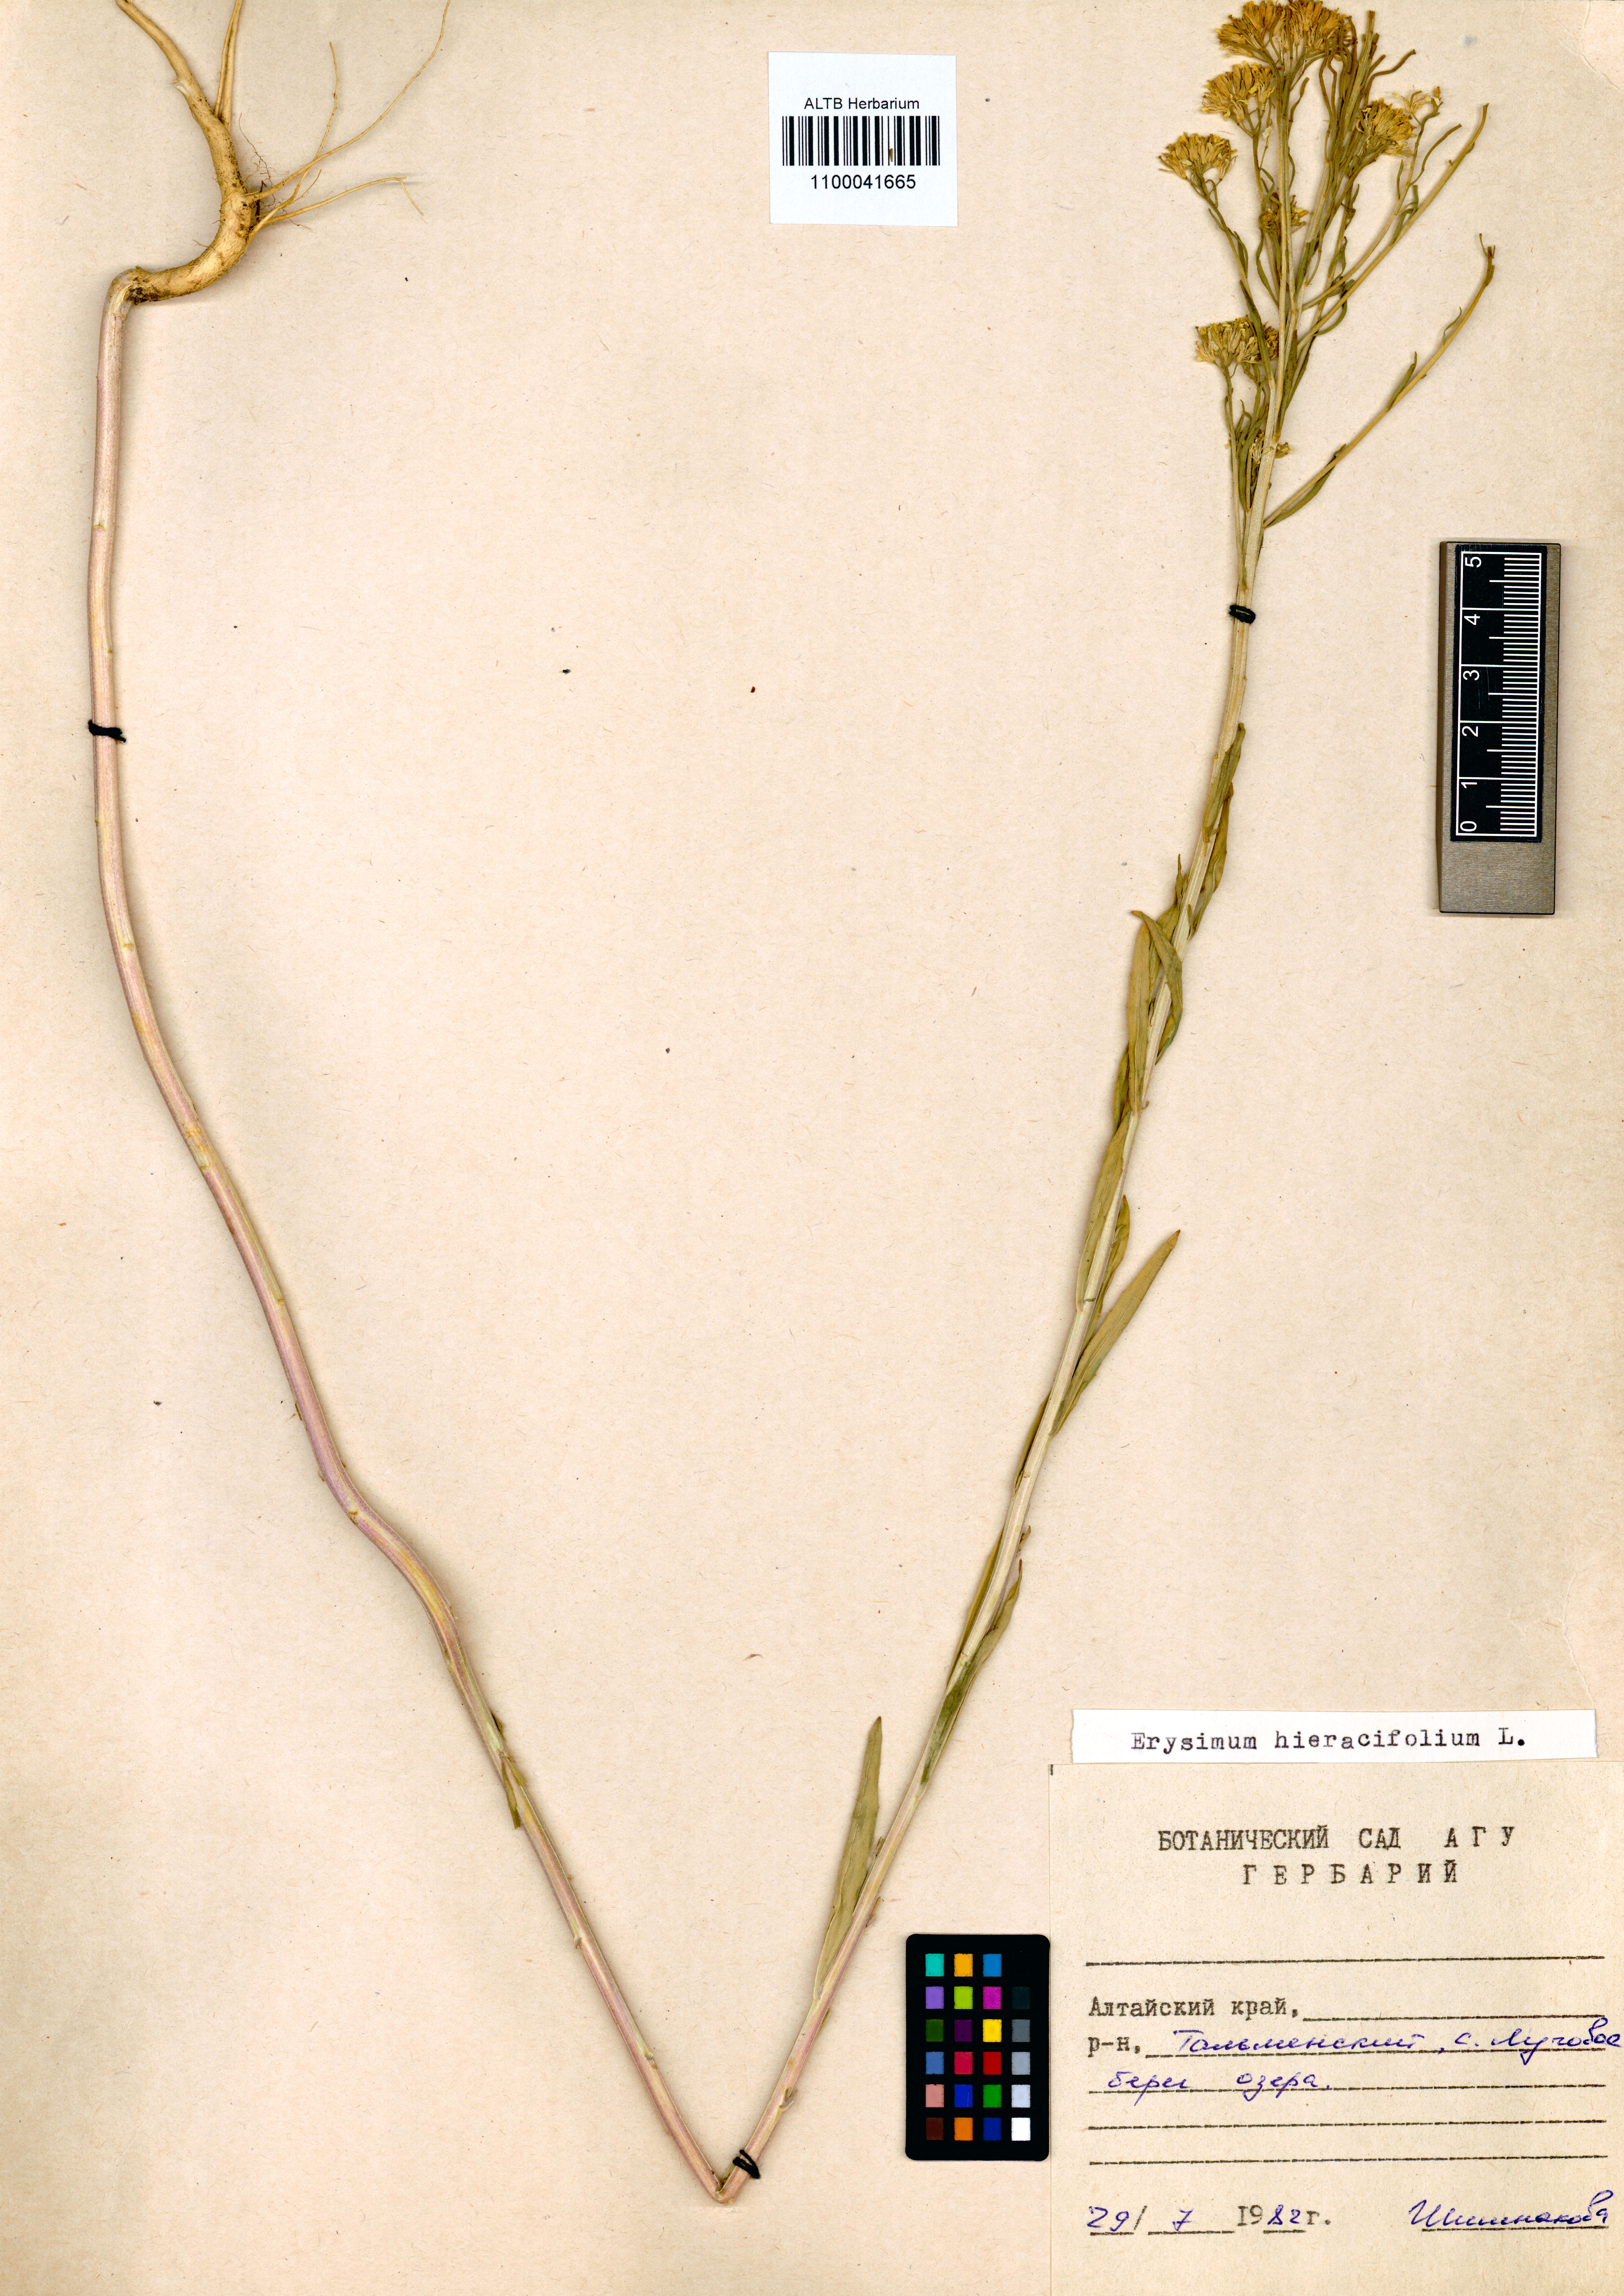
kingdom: Plantae
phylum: Tracheophyta
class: Magnoliopsida
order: Brassicales
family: Brassicaceae
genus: Erysimum
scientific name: Erysimum hieraciifolium
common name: European wallflower
